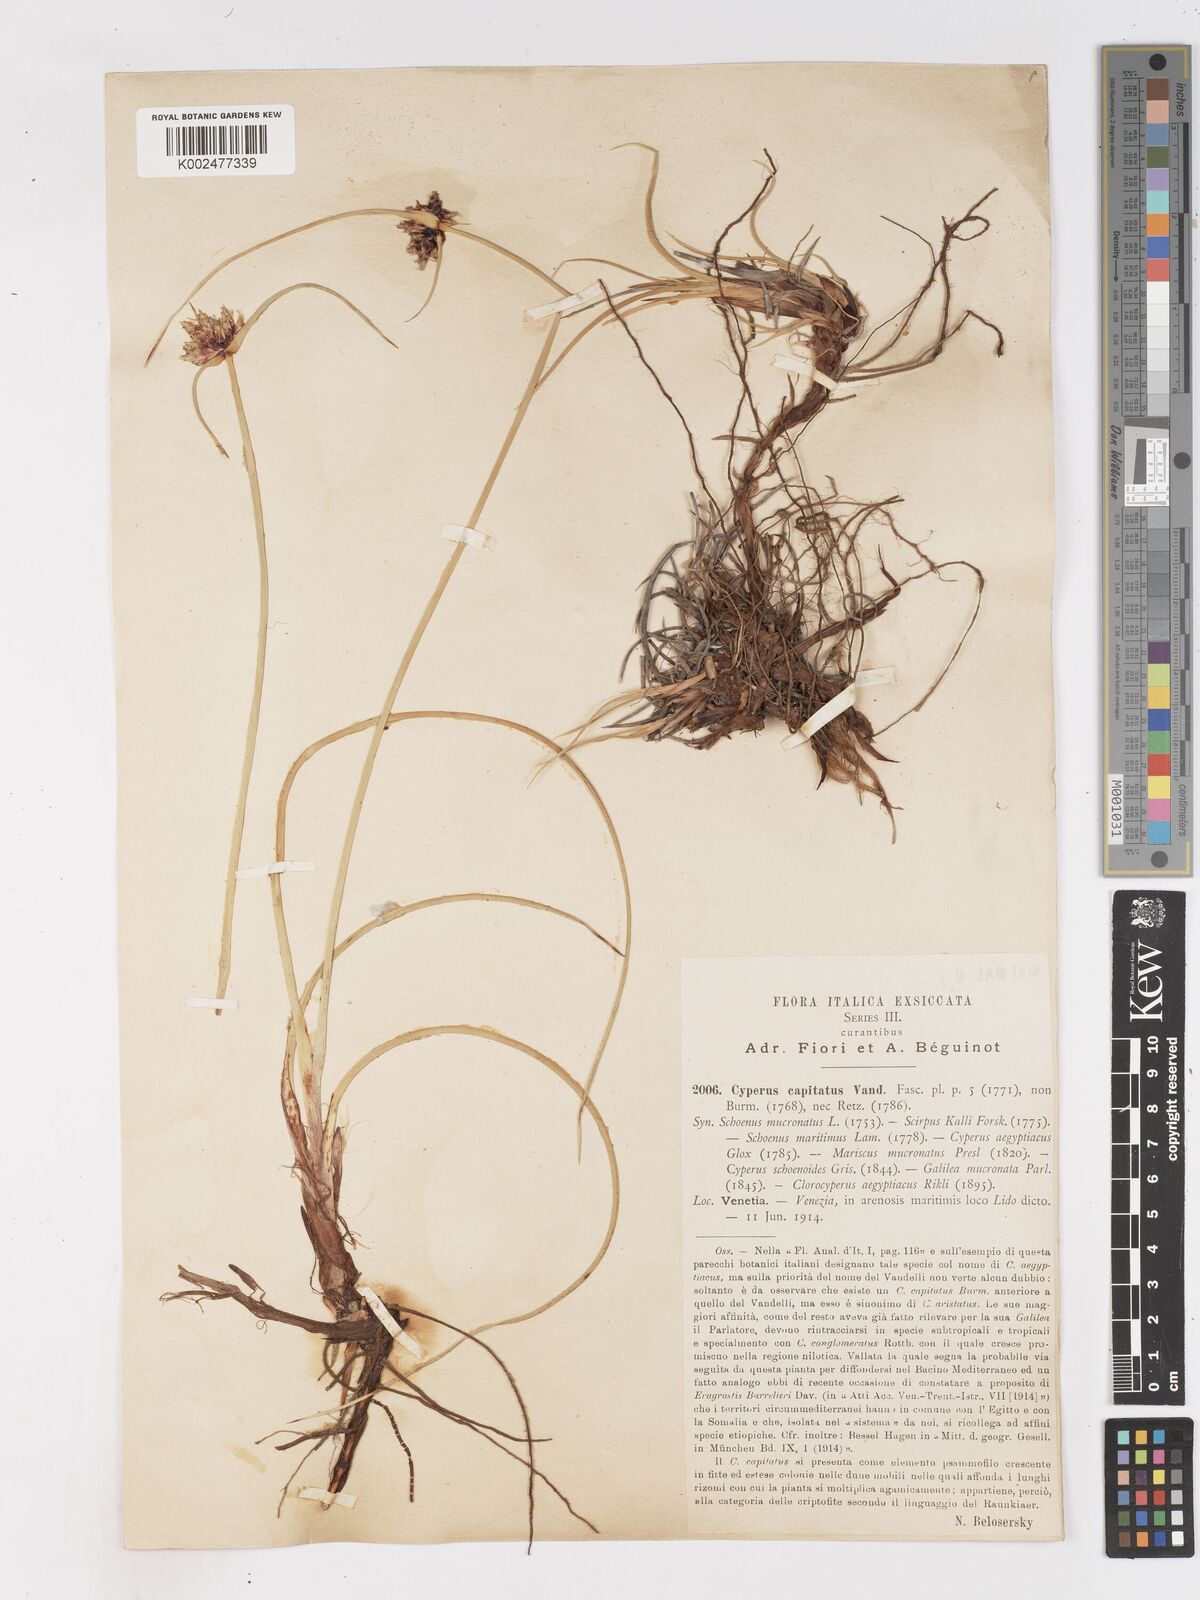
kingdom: Plantae
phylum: Tracheophyta
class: Liliopsida
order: Poales
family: Cyperaceae
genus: Cyperus
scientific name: Cyperus capitatus
